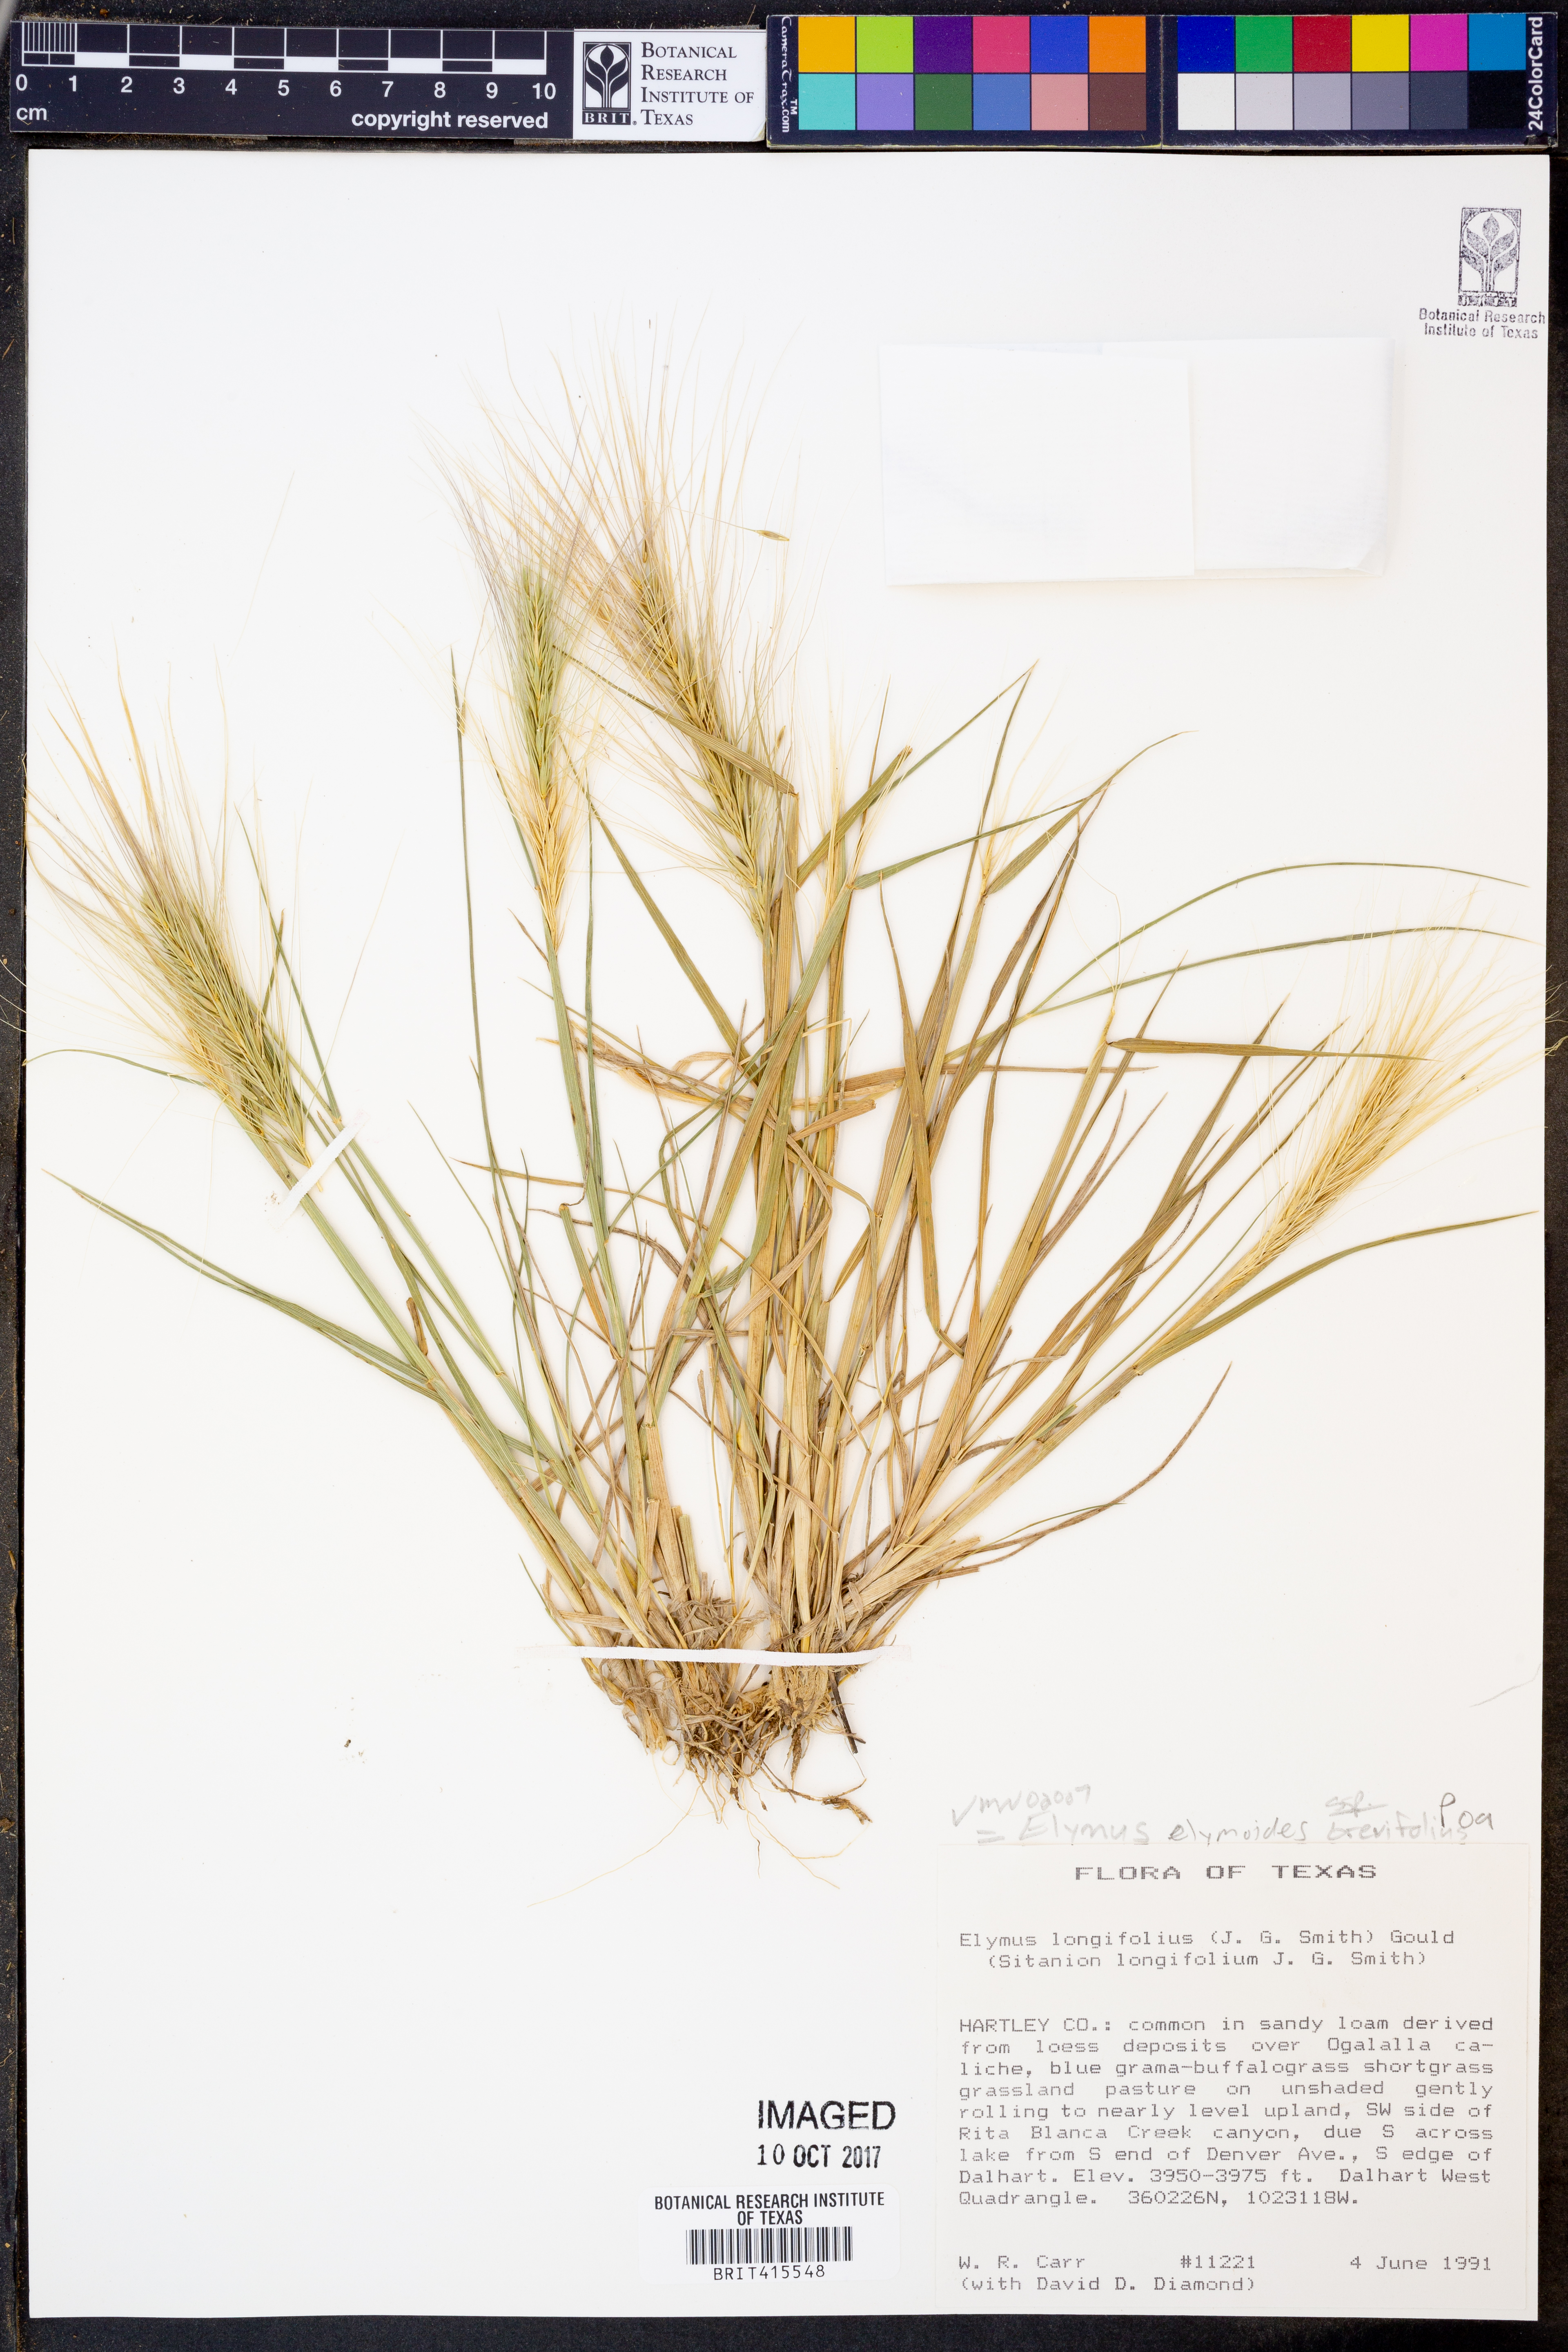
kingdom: Plantae
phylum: Tracheophyta
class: Liliopsida
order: Poales
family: Poaceae
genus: Elymus
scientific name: Elymus longifolius
